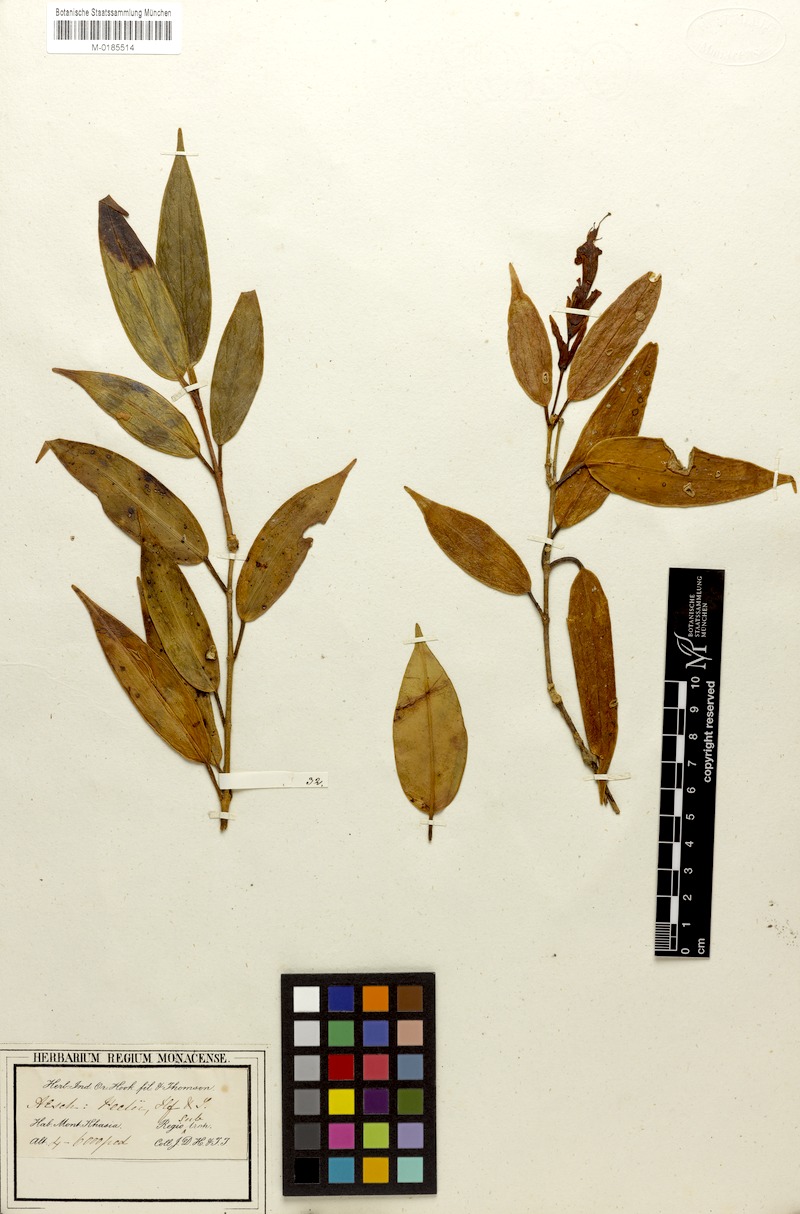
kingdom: Plantae
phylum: Tracheophyta
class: Magnoliopsida
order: Lamiales
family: Gesneriaceae
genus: Aeschynanthus
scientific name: Aeschynanthus bracteatus
